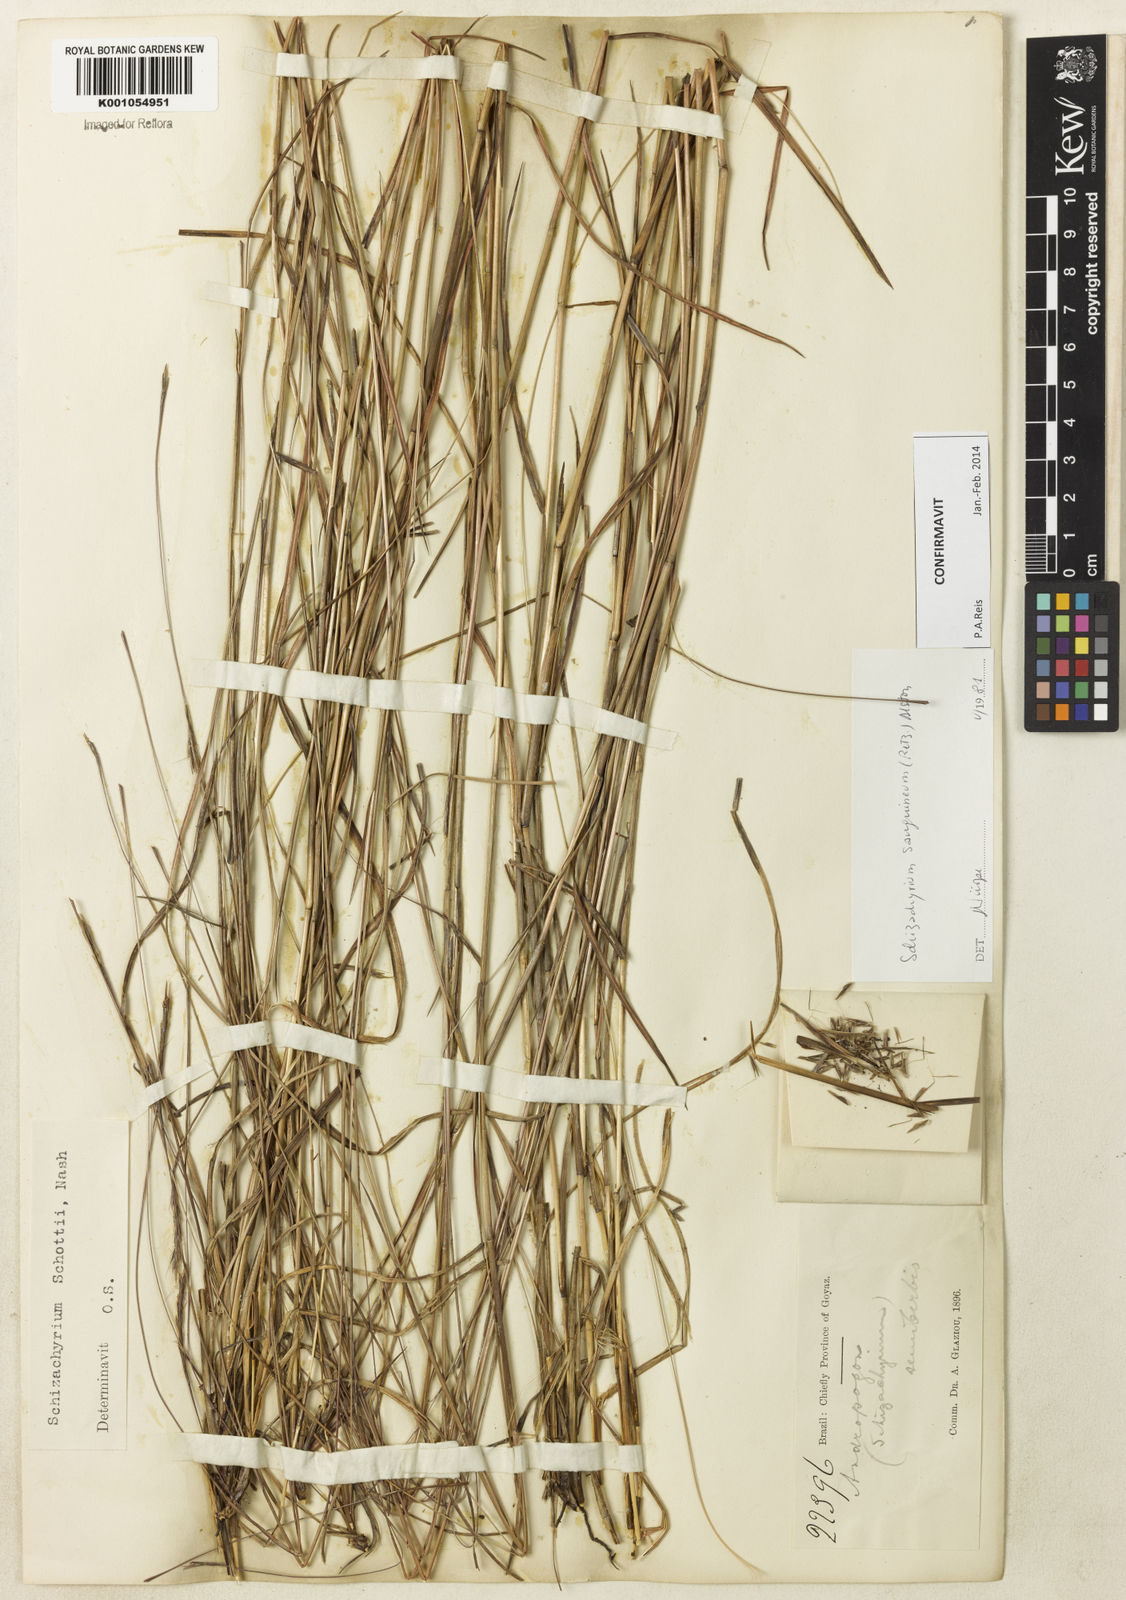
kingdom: Plantae
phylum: Tracheophyta
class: Liliopsida
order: Poales
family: Poaceae
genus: Schizachyrium
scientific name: Schizachyrium sanguineum
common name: Crimson bluestem
